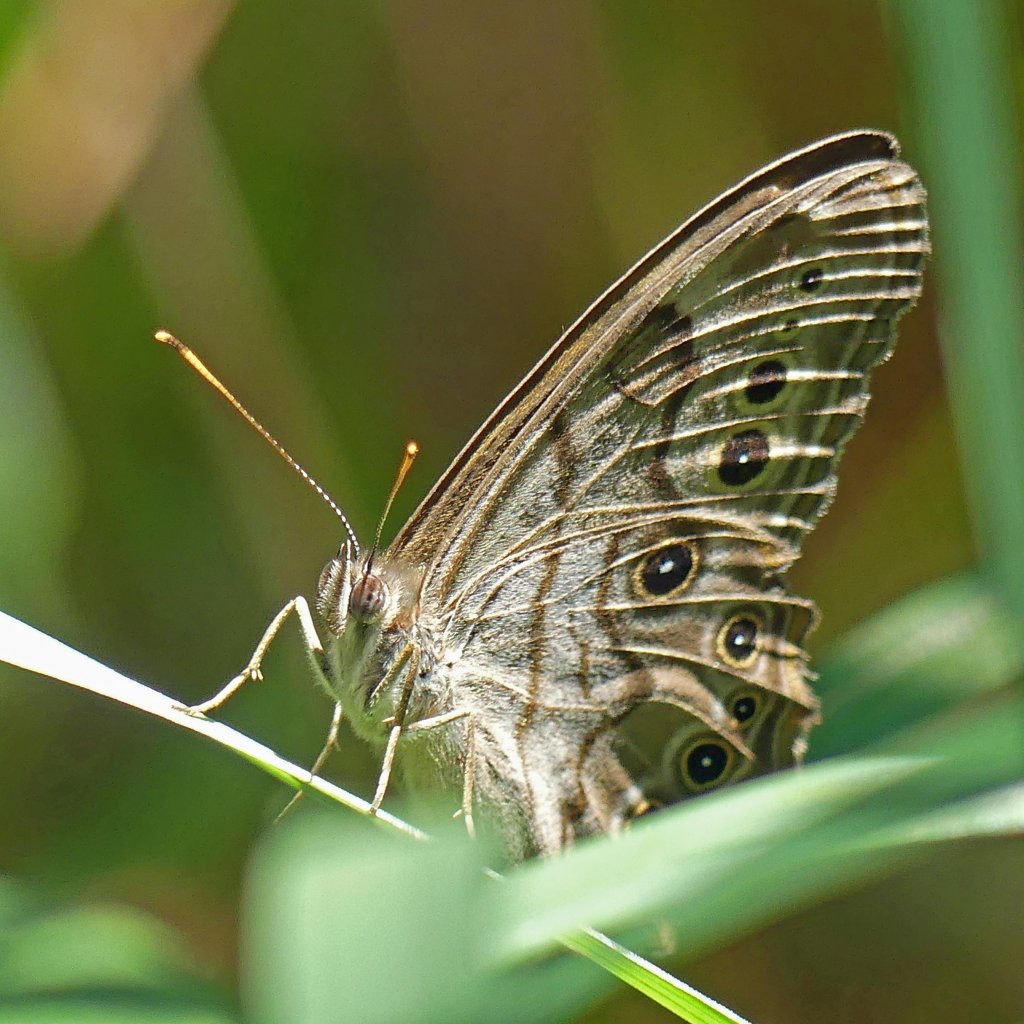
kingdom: Animalia
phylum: Arthropoda
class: Insecta
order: Lepidoptera
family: Nymphalidae
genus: Lethe
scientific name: Lethe anthedon
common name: Northern Pearly-Eye
